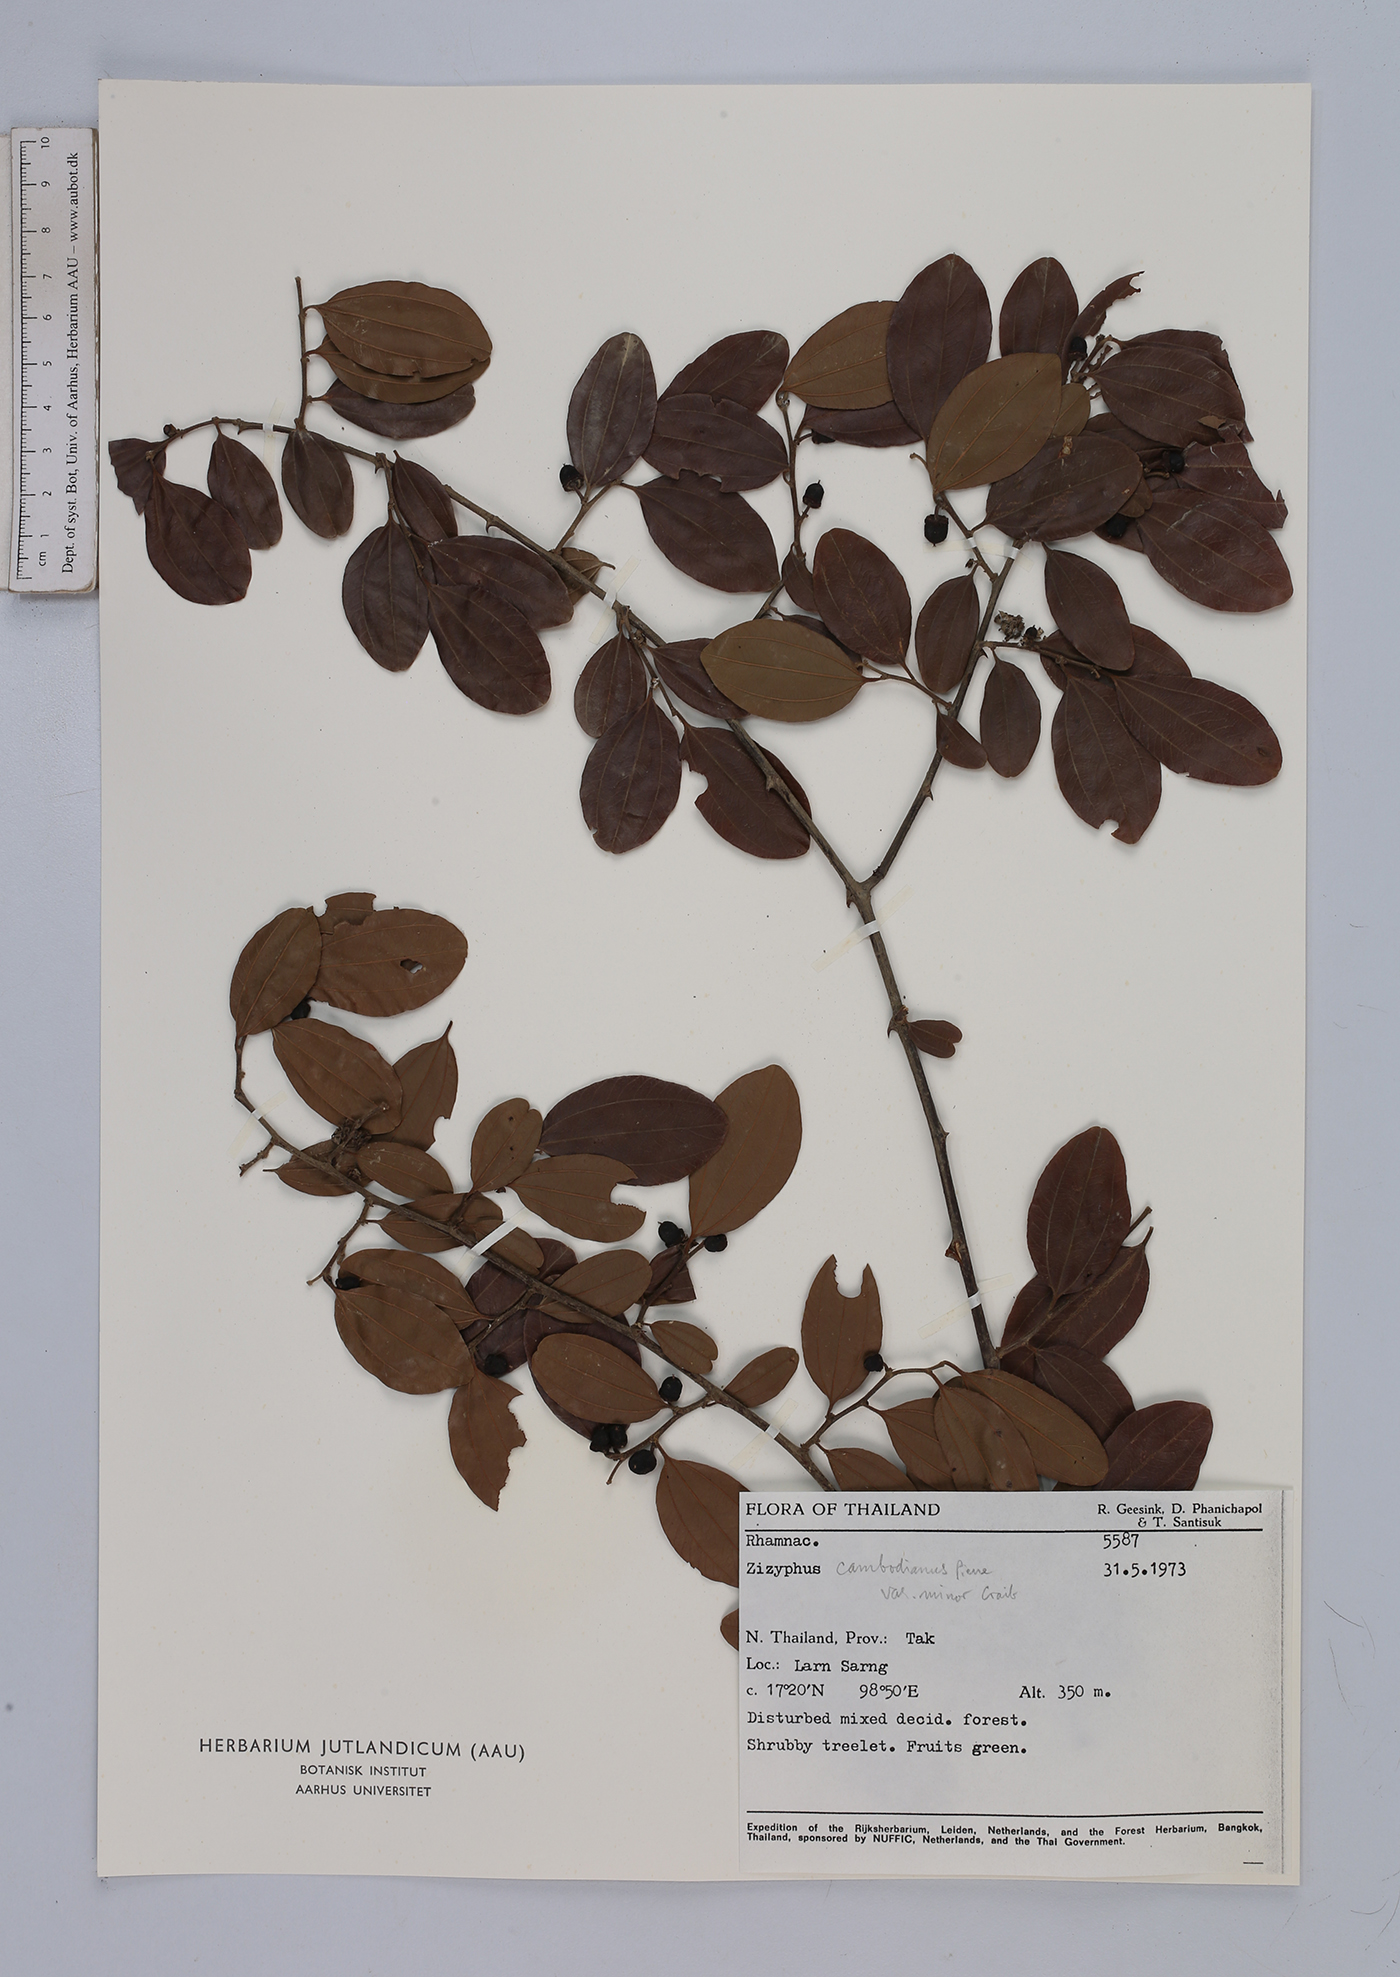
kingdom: Plantae
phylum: Tracheophyta
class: Magnoliopsida
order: Rosales
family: Rhamnaceae
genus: Ziziphus
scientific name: Ziziphus cambodiana
